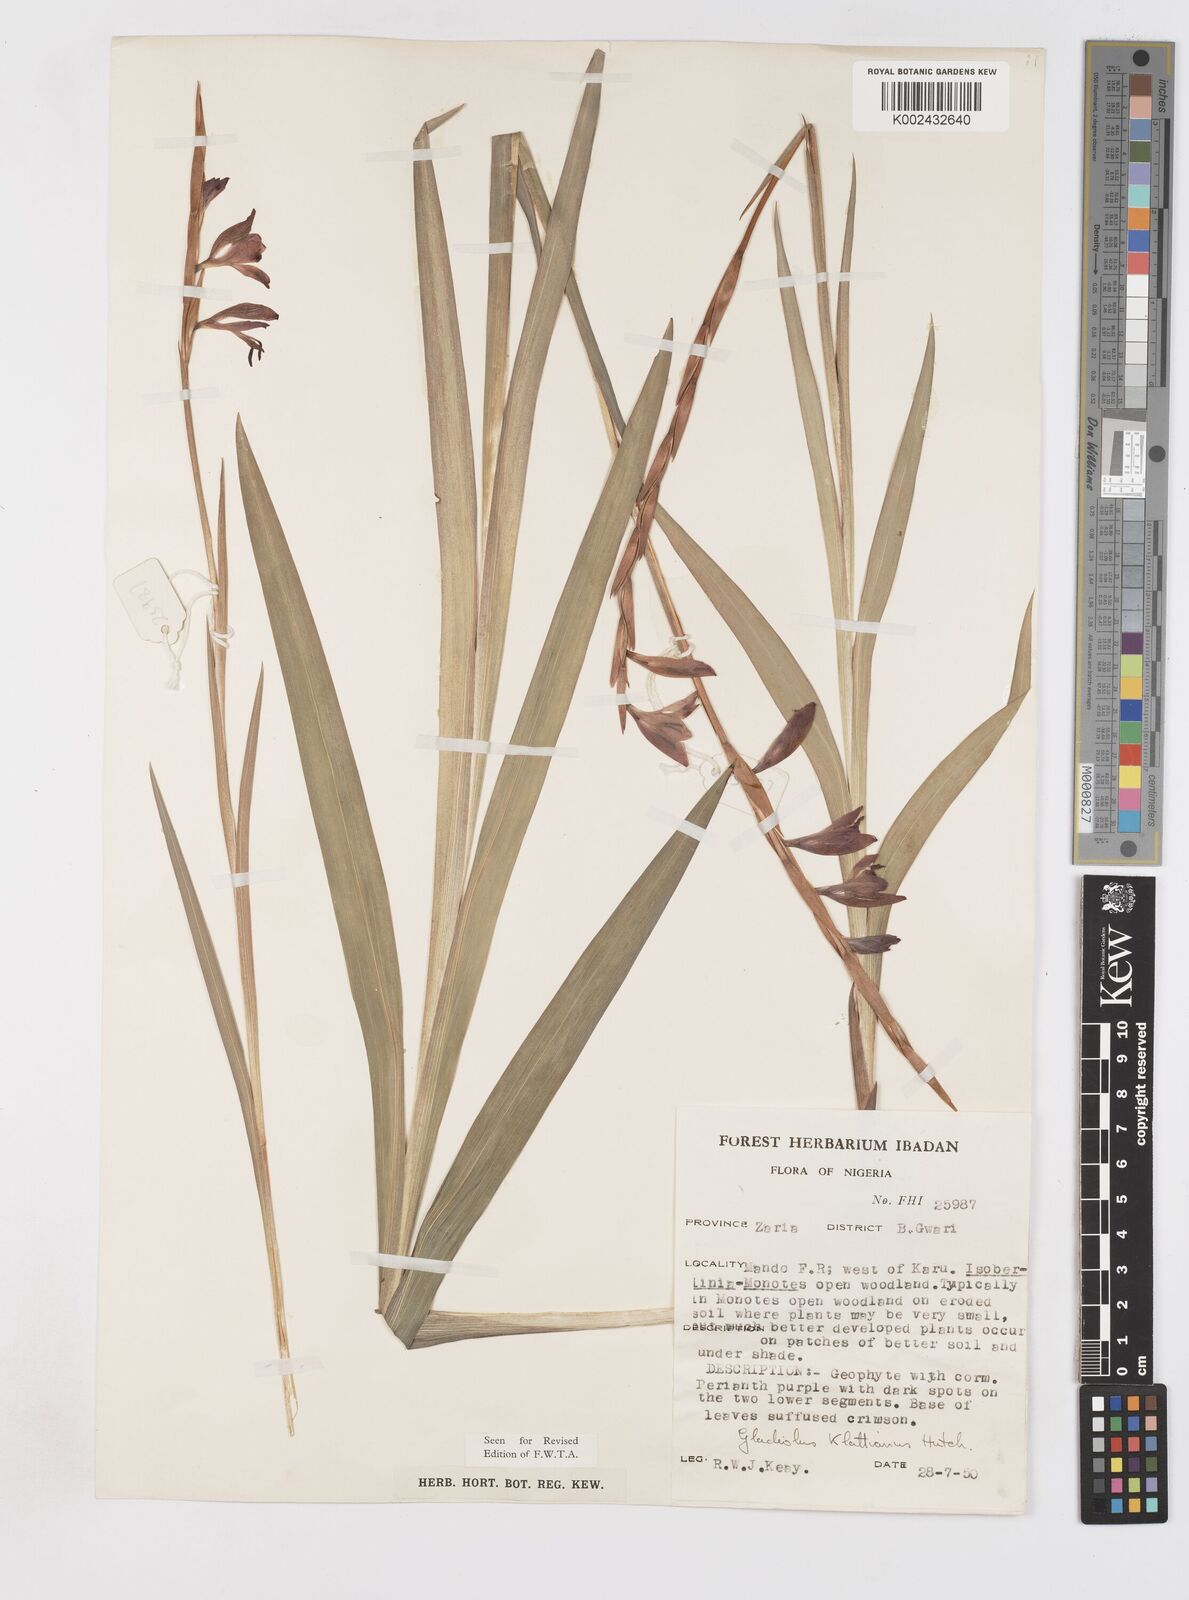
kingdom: Plantae
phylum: Tracheophyta
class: Liliopsida
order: Asparagales
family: Iridaceae
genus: Gladiolus
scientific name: Gladiolus gregarius
